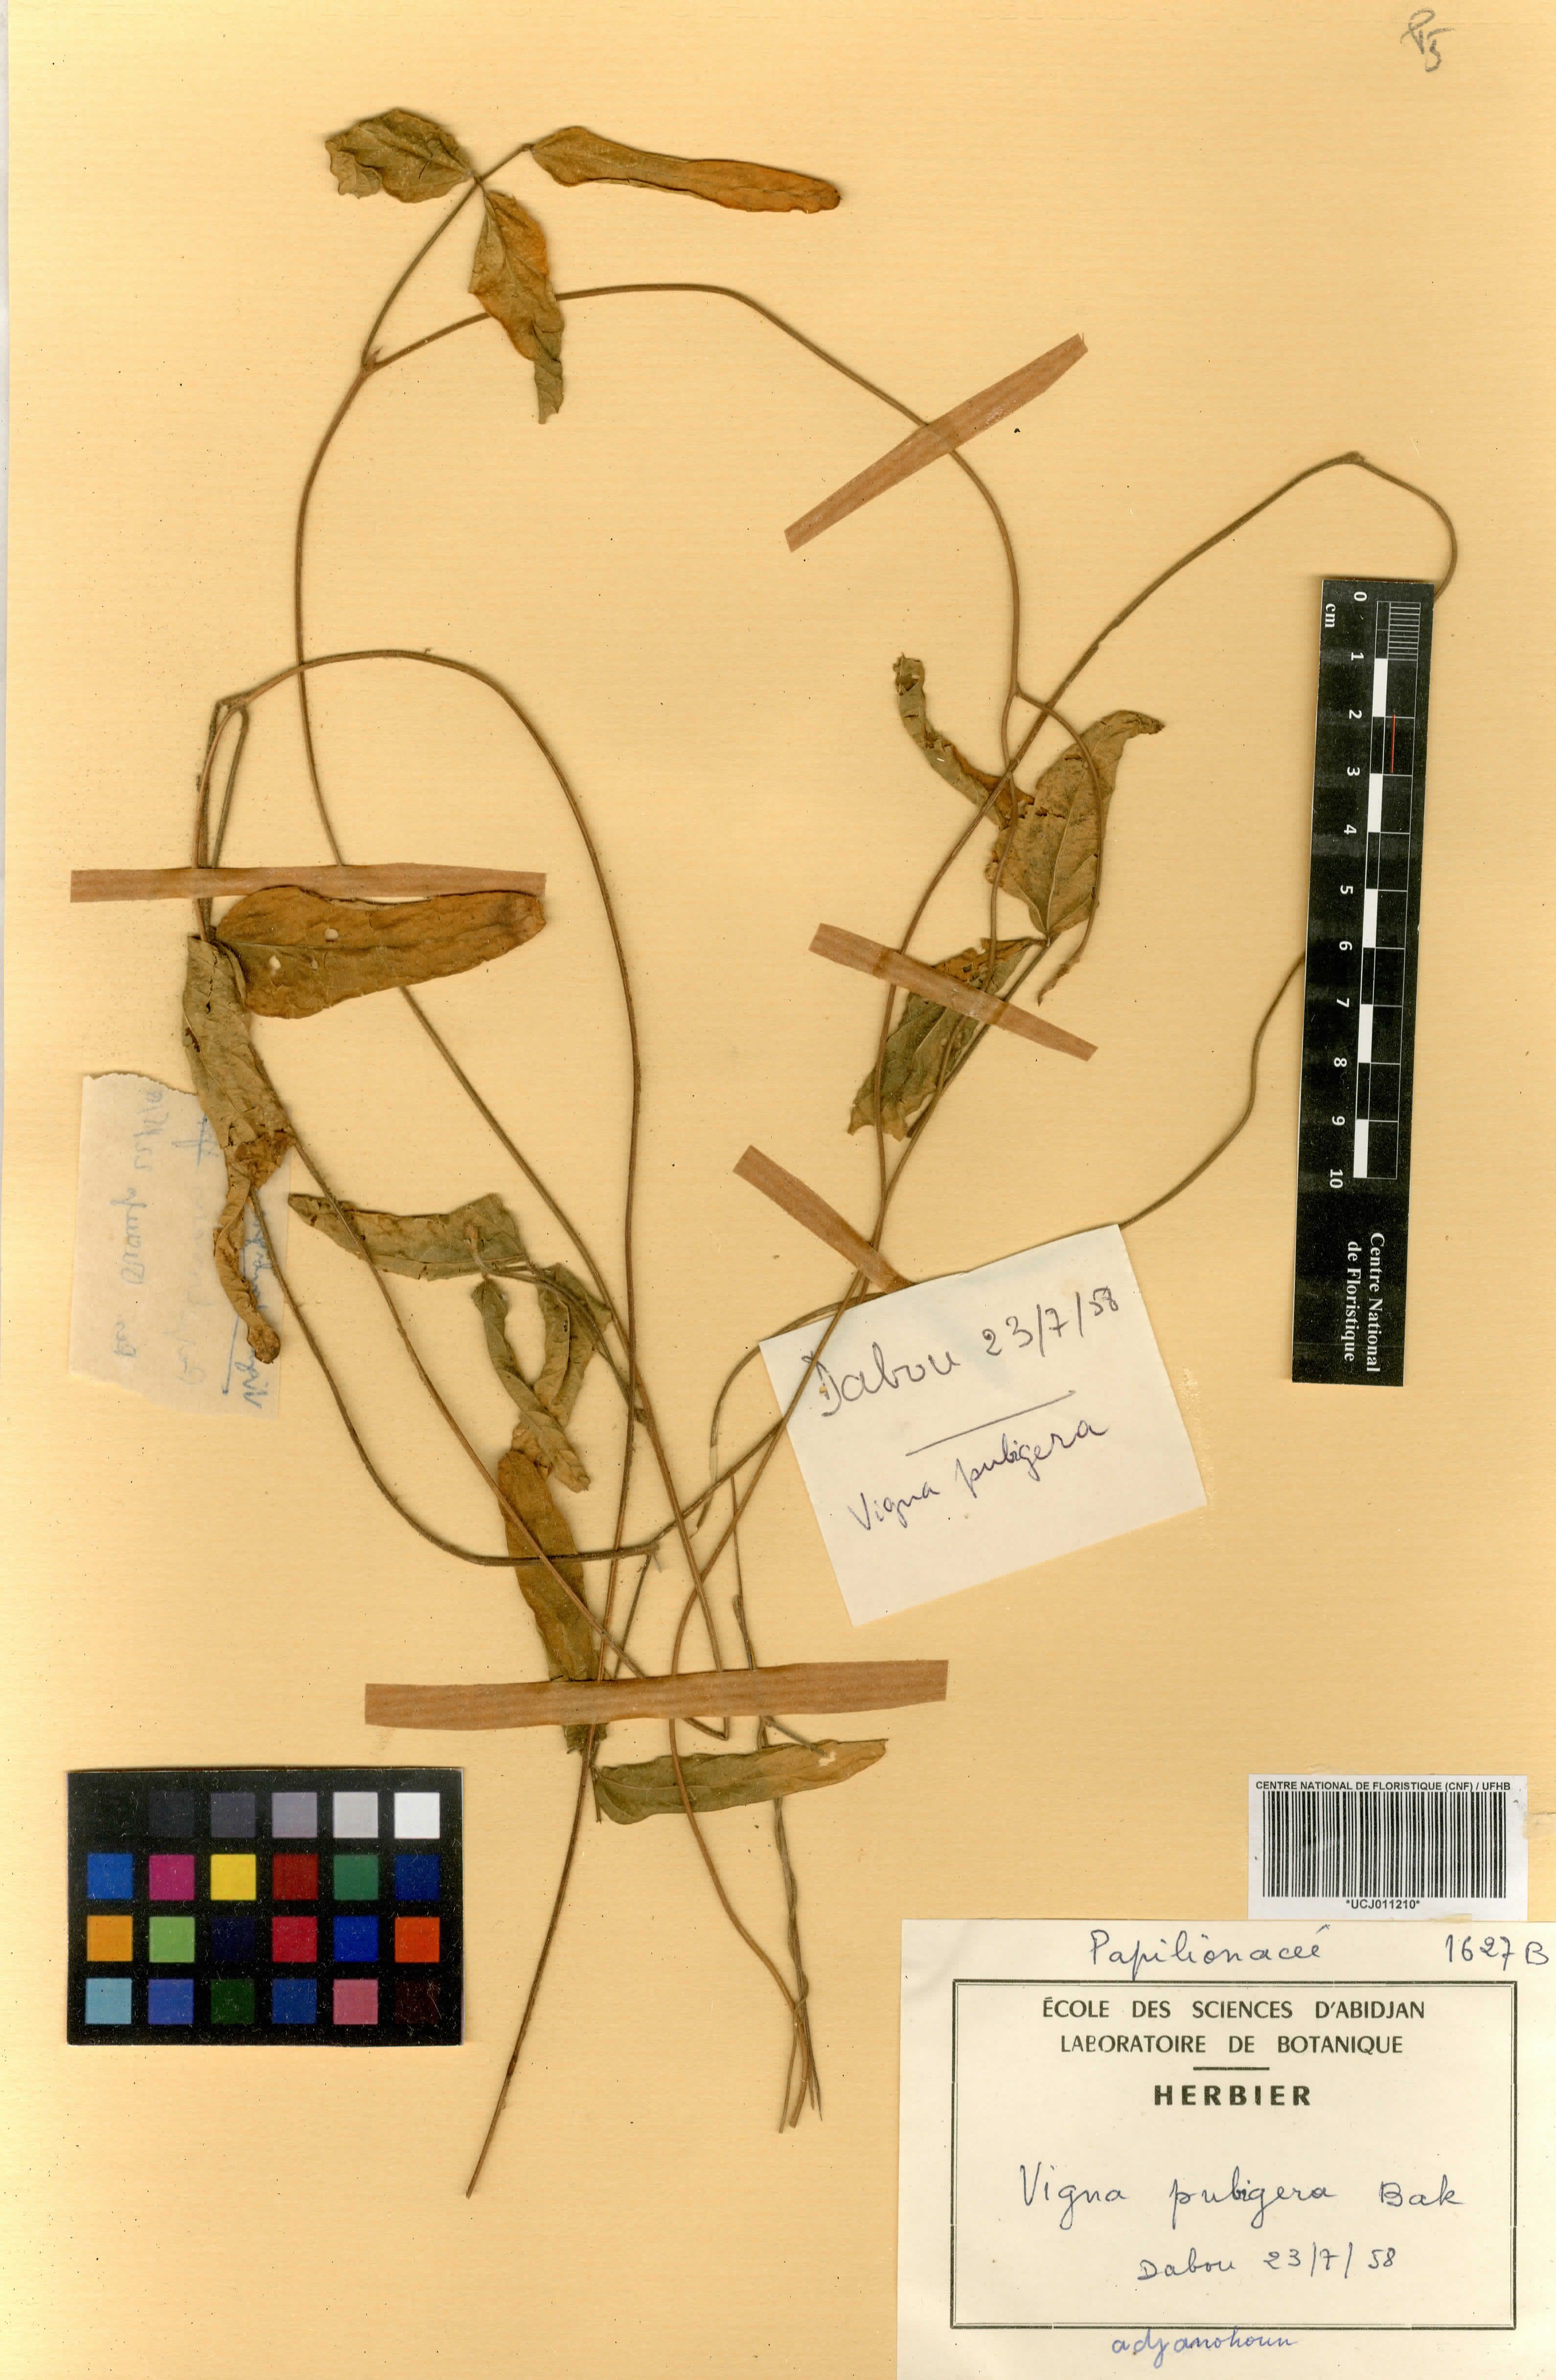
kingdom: Plantae
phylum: Tracheophyta
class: Magnoliopsida
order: Fabales
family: Fabaceae
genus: Vigna
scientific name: Vigna pubigera
